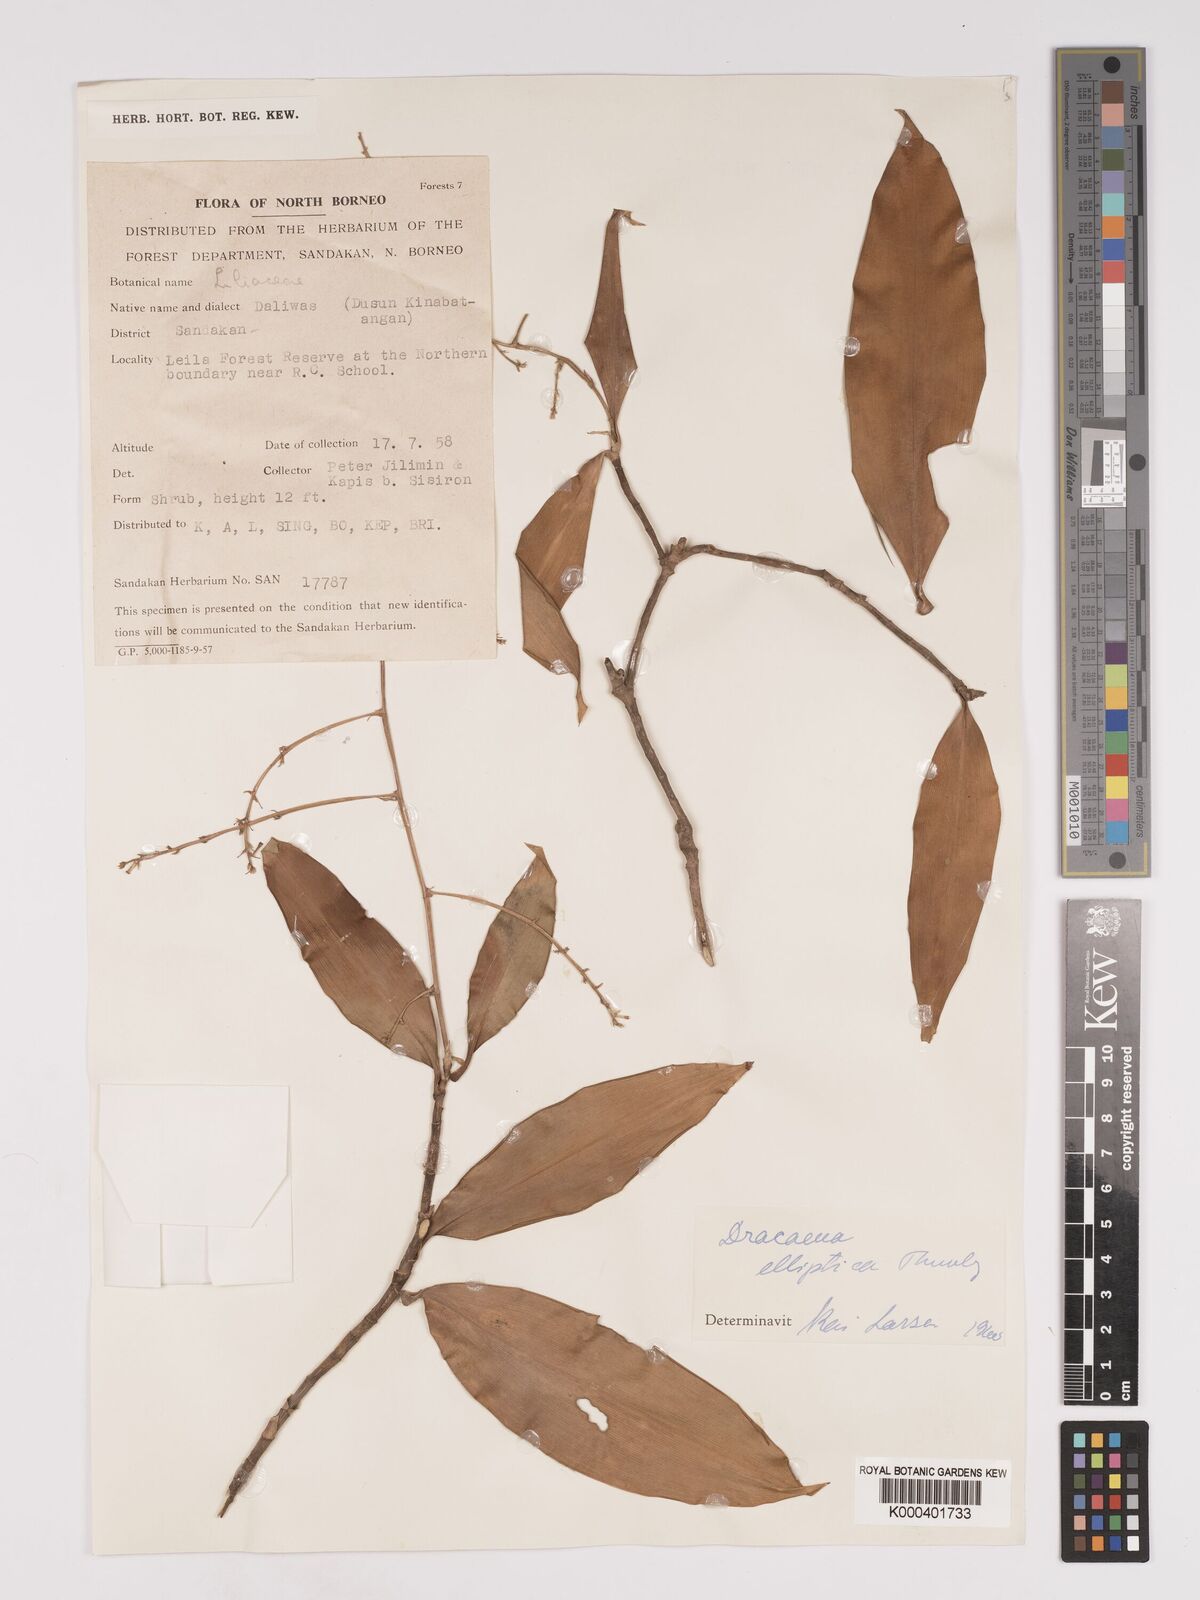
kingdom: Plantae
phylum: Tracheophyta
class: Liliopsida
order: Asparagales
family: Asparagaceae
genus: Dracaena
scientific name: Dracaena elliptica
